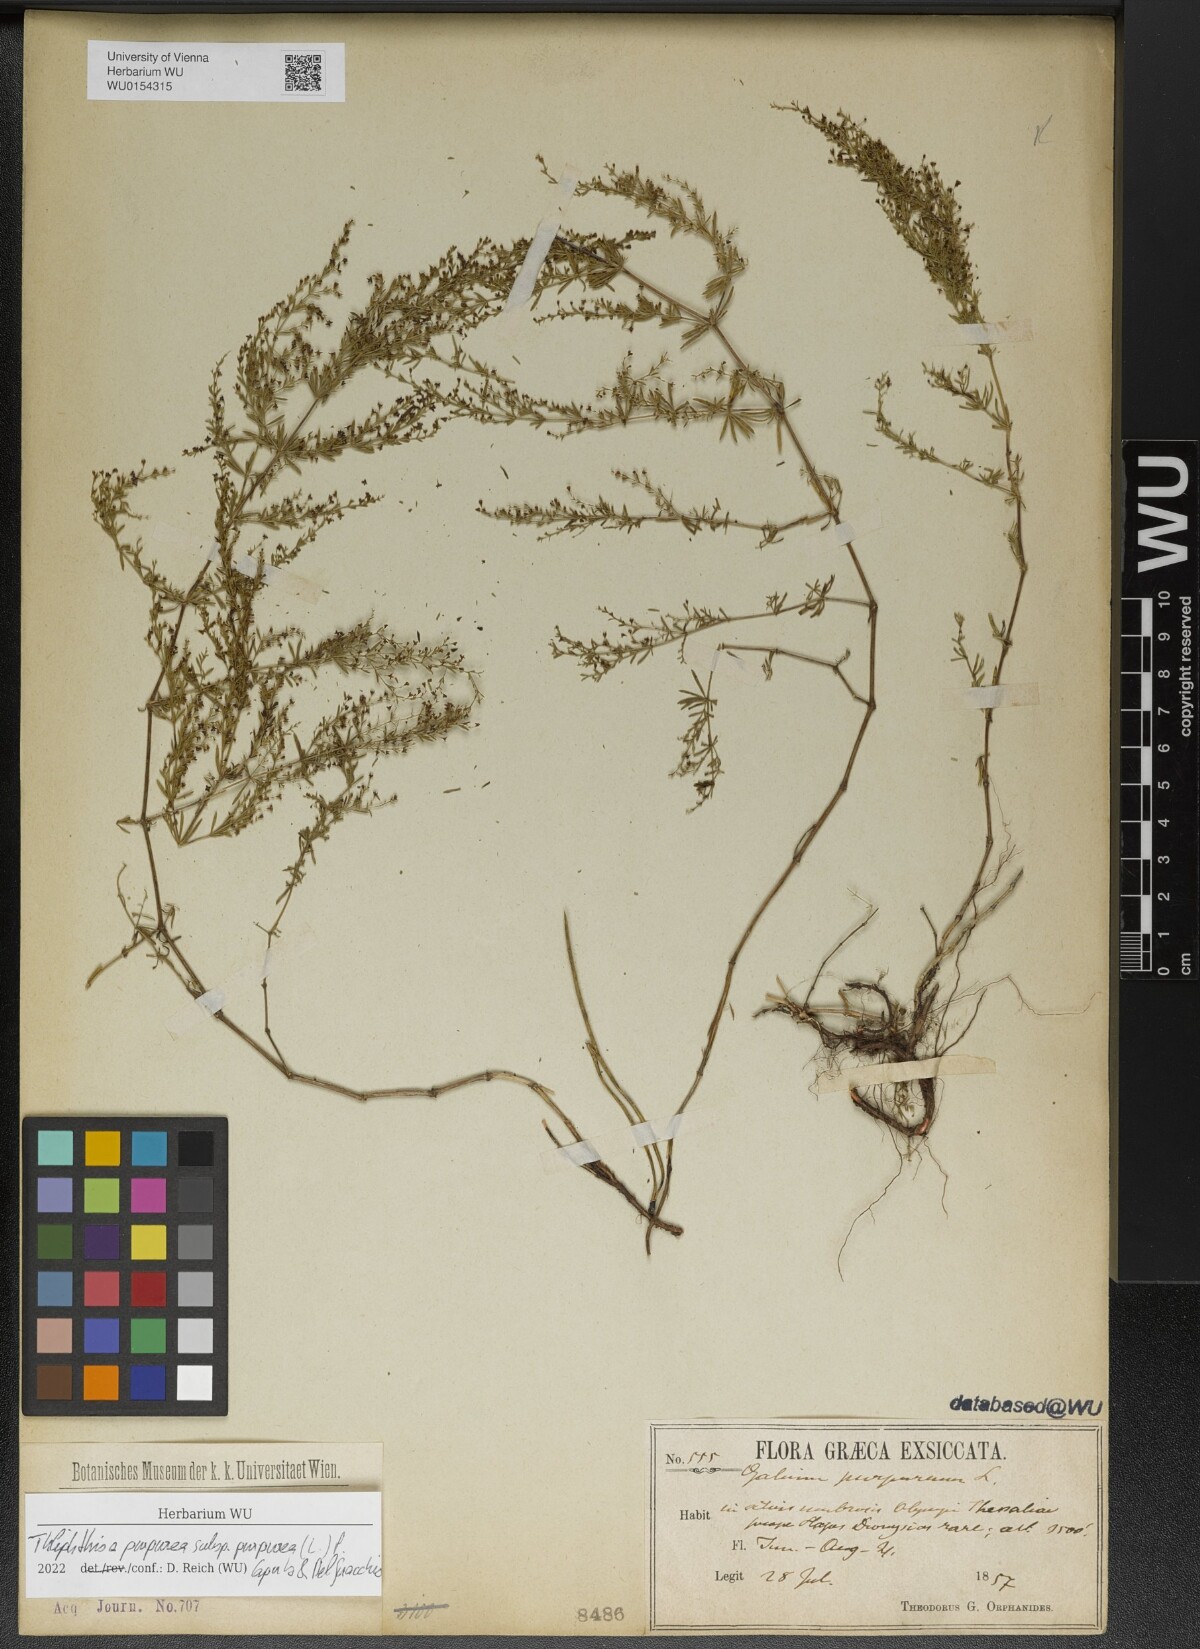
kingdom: Plantae
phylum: Tracheophyta
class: Magnoliopsida
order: Gentianales
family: Rubiaceae
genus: Thliphthisa
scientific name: Thliphthisa purpurea
